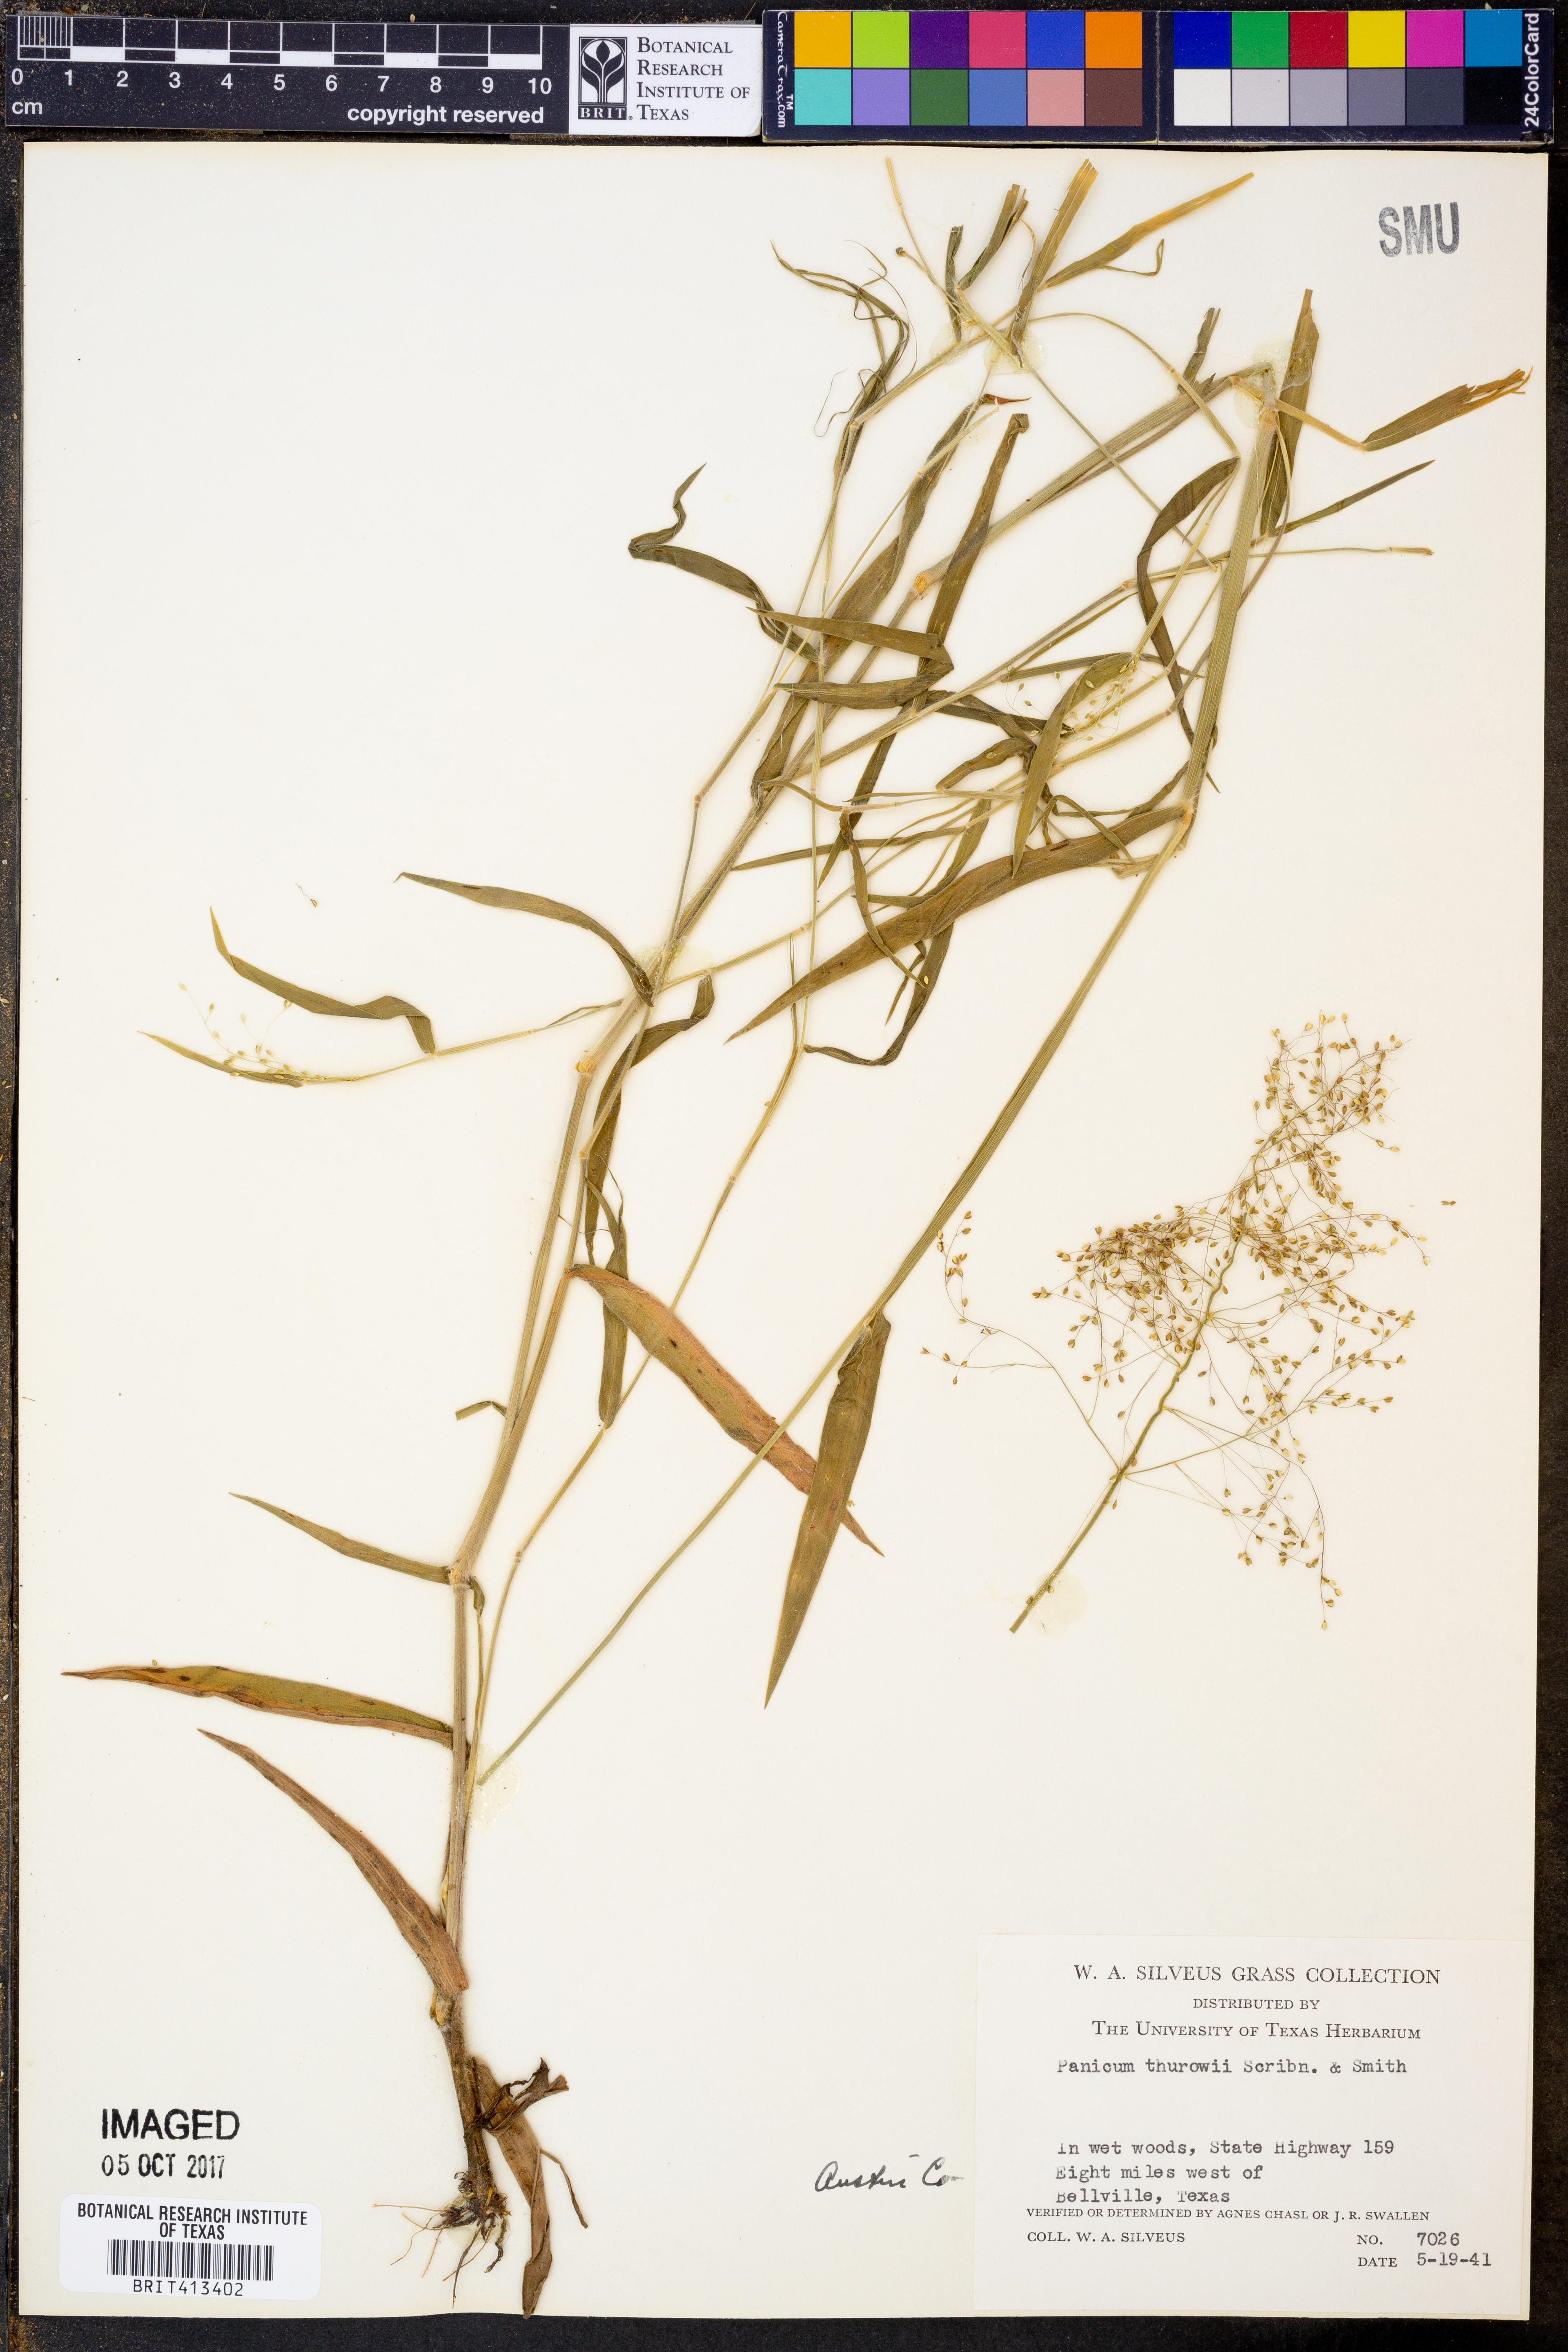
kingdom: Plantae
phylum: Tracheophyta
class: Liliopsida
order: Poales
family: Poaceae
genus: Dichanthelium
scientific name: Dichanthelium acuminatum
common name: Hairy panic grass
